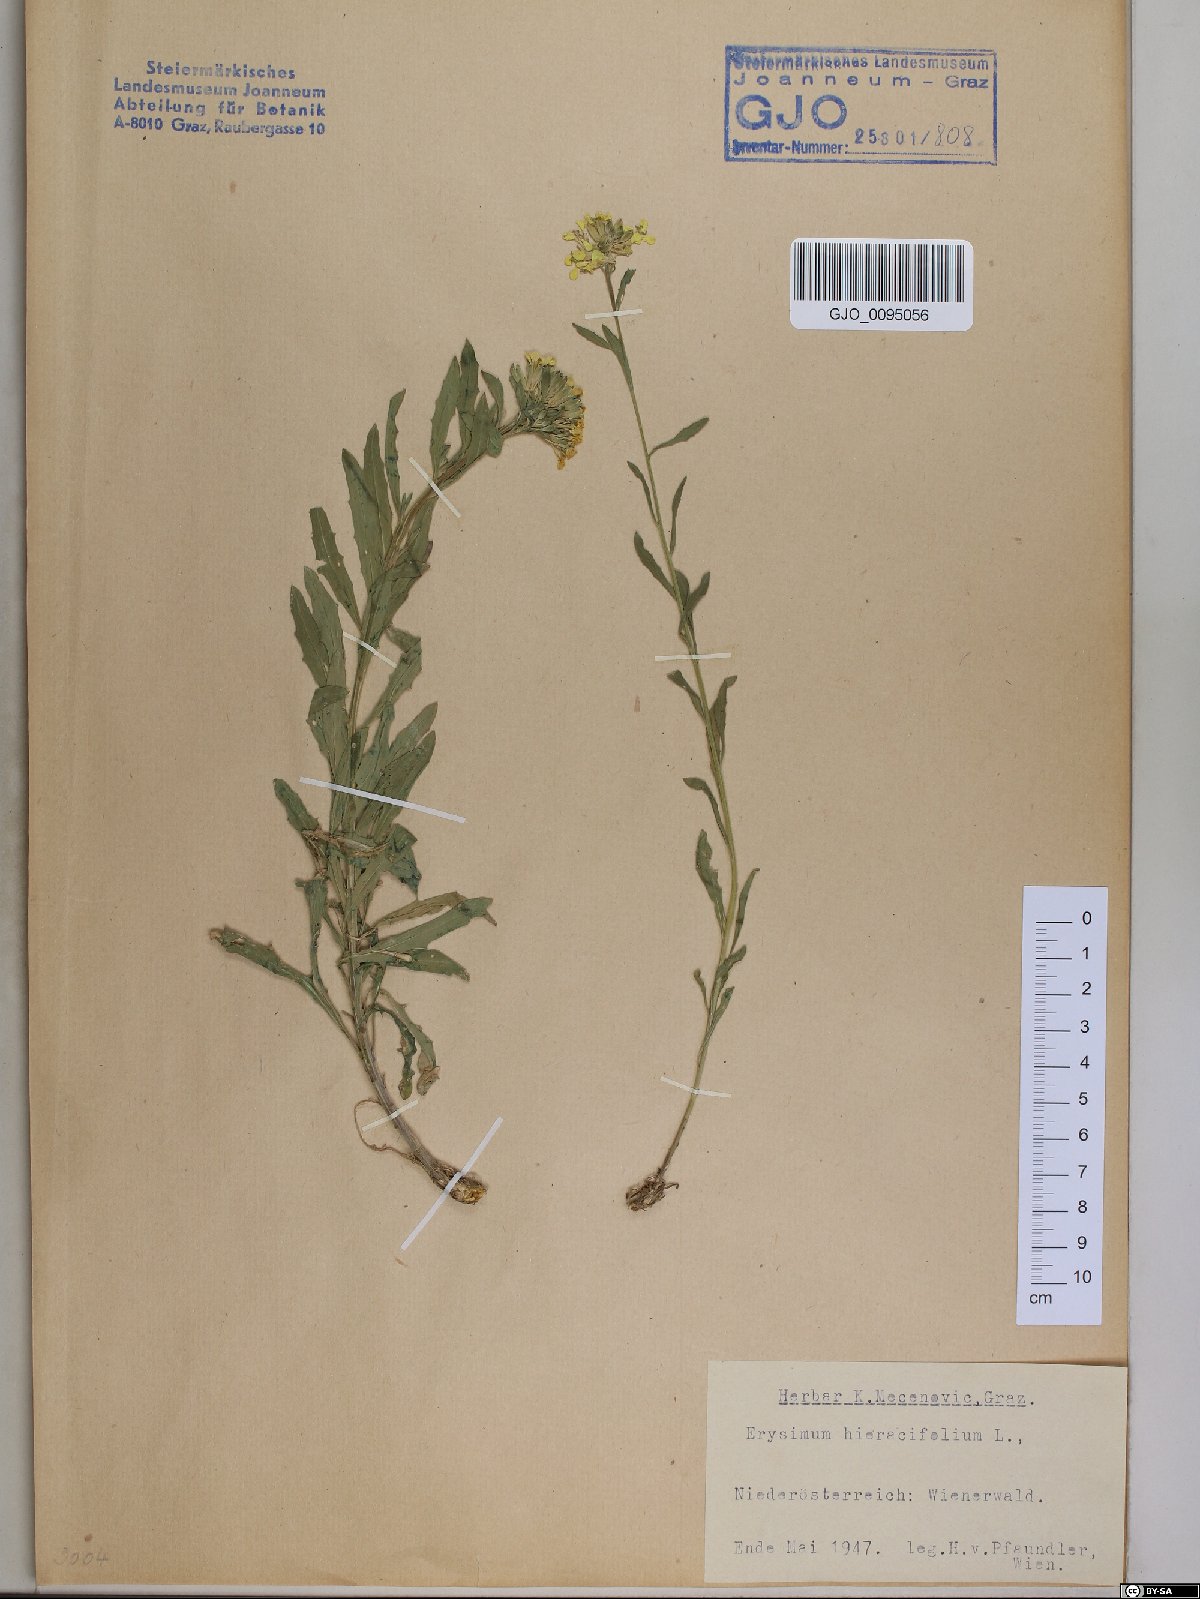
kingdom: Plantae
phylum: Tracheophyta
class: Magnoliopsida
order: Brassicales
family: Brassicaceae
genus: Erysimum
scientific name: Erysimum hieraciifolium
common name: European wallflower
